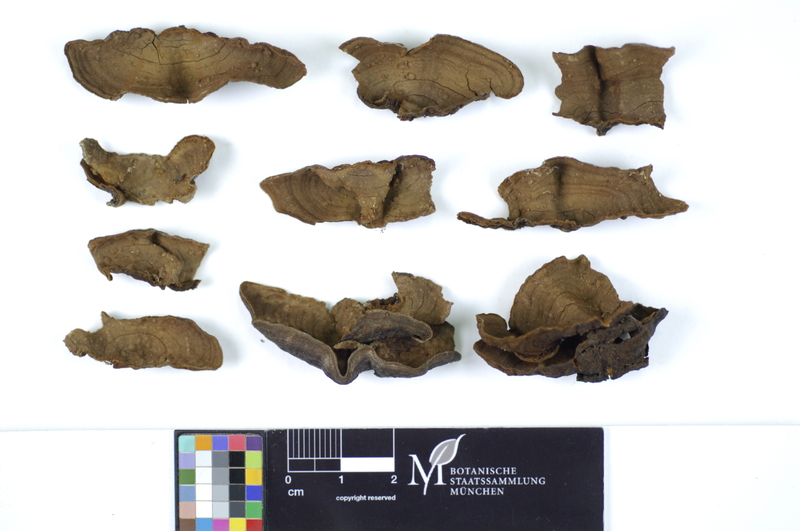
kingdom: Fungi
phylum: Basidiomycota
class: Agaricomycetes
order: Hymenochaetales
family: Hymenochaetaceae
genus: Hymenochaete
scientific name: Hymenochaete rubiginosa
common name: Oak curtain crust
